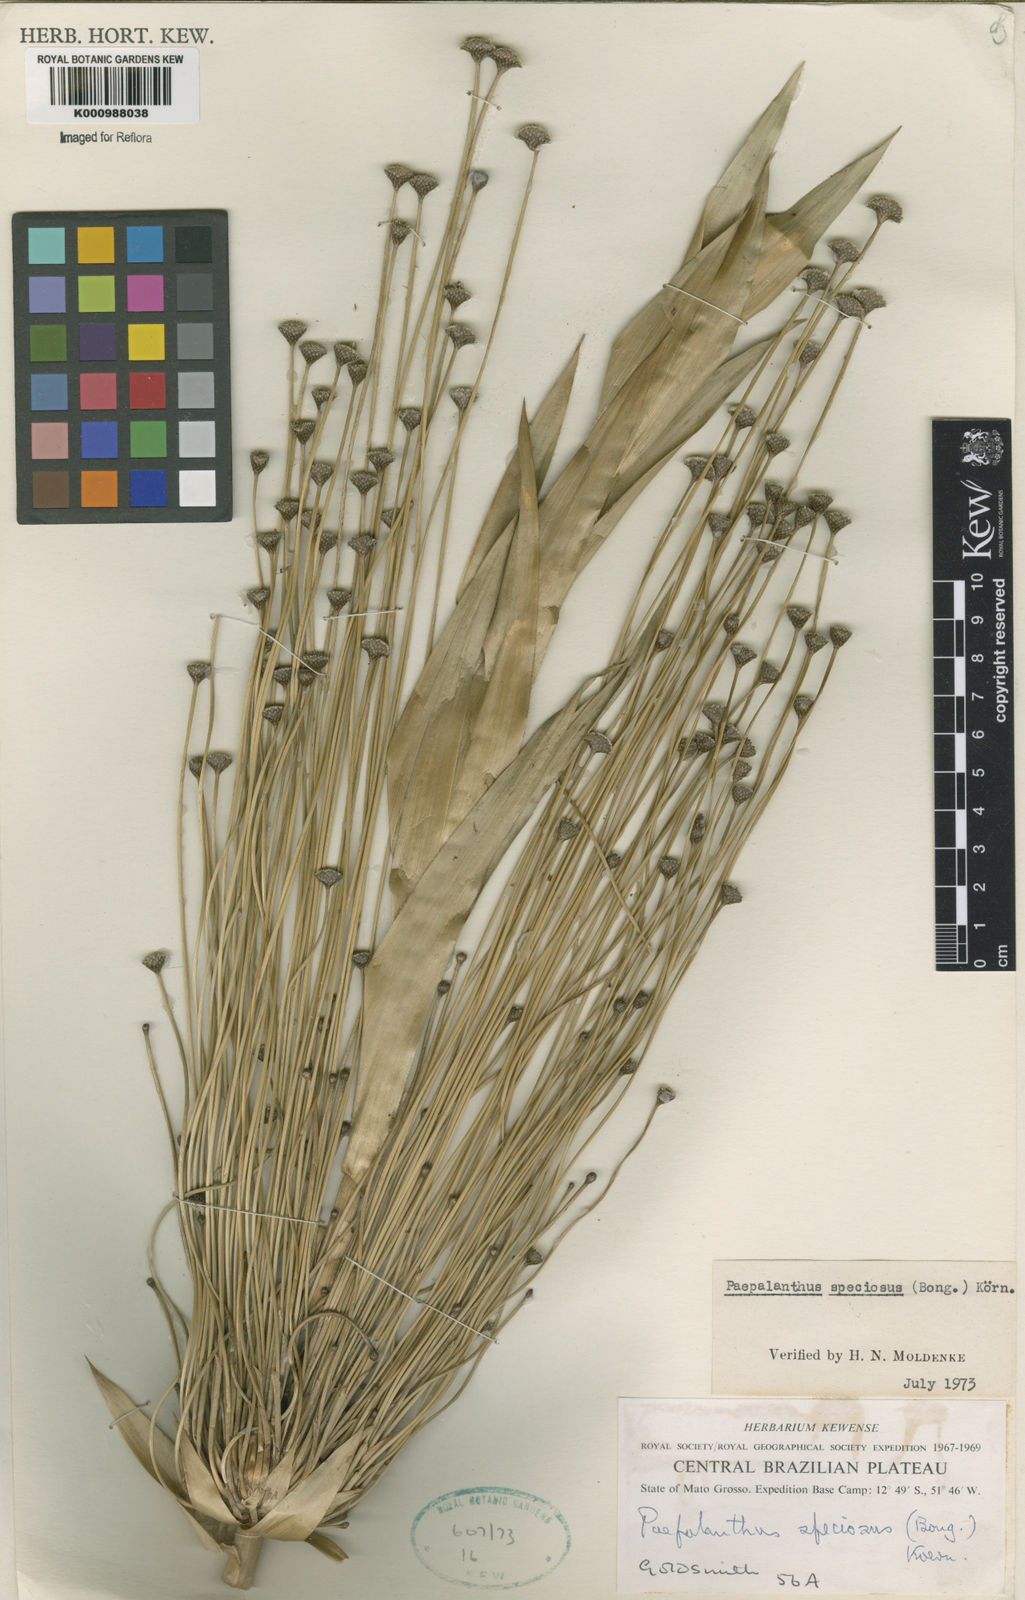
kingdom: Plantae
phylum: Tracheophyta
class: Liliopsida
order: Poales
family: Eriocaulaceae
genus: Paepalanthus
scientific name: Paepalanthus
